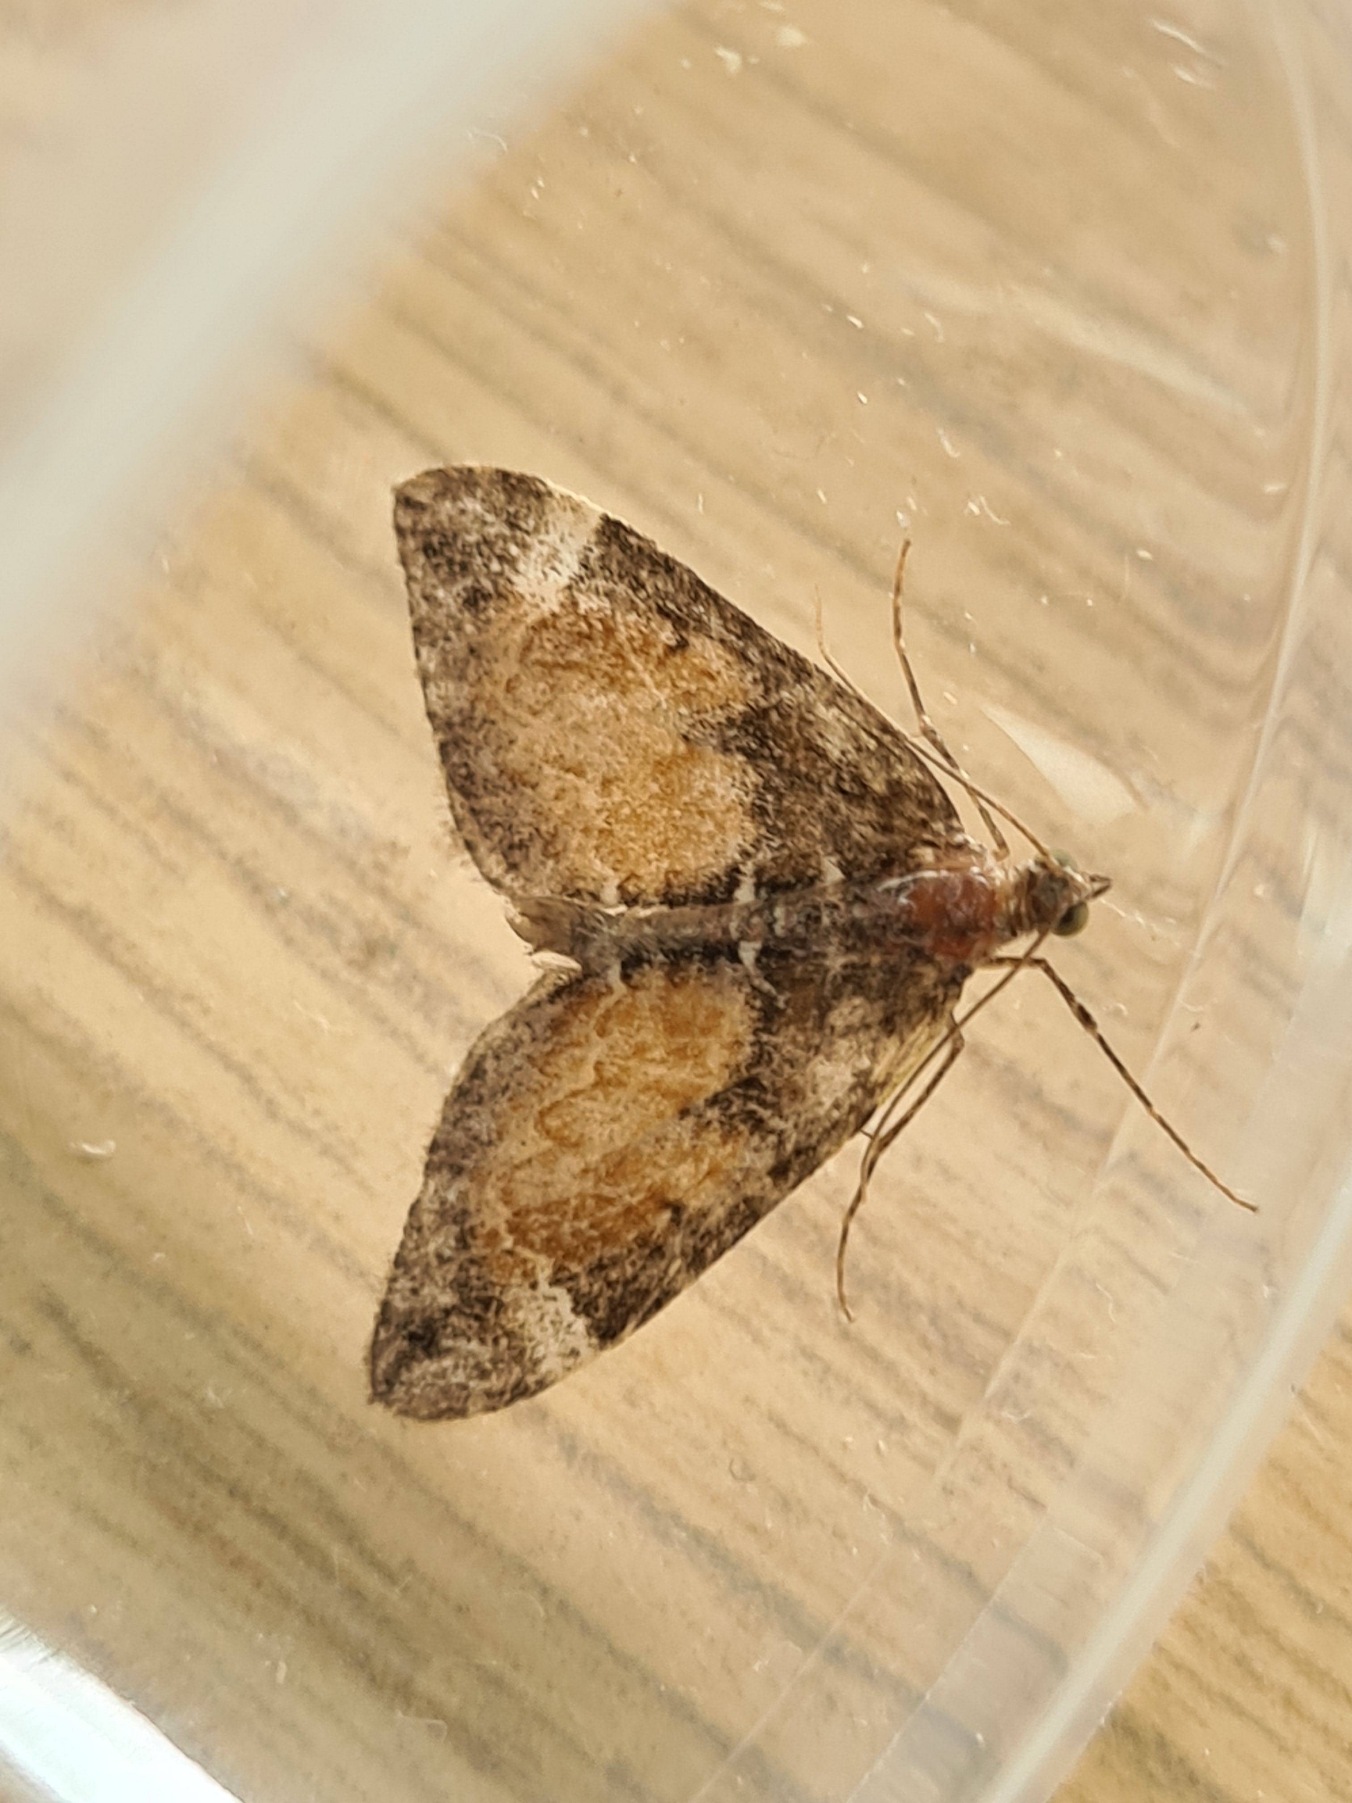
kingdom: Animalia
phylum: Arthropoda
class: Insecta
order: Lepidoptera
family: Geometridae
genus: Dysstroma
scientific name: Dysstroma truncata
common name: Jordbær-bladmåler
